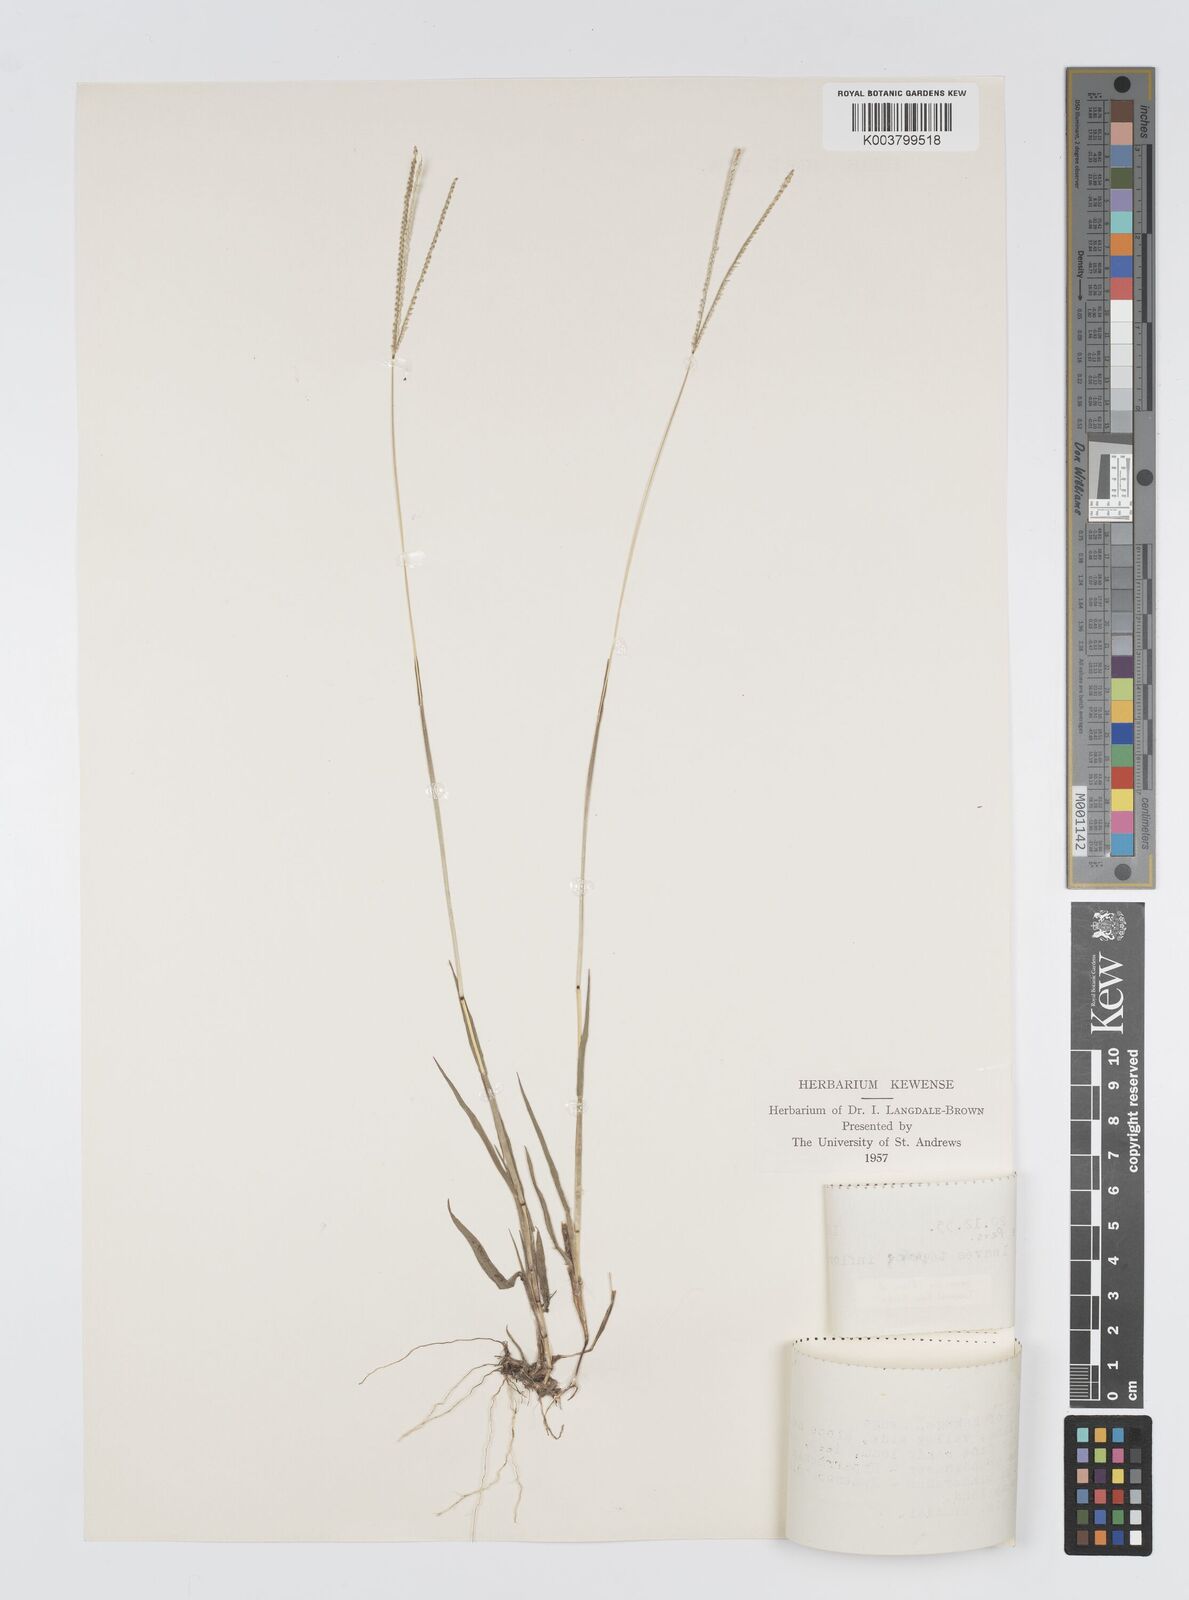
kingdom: Plantae
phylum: Tracheophyta
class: Liliopsida
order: Poales
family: Poaceae
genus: Digitaria
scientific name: Digitaria longiflora
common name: Wire crabgrass
